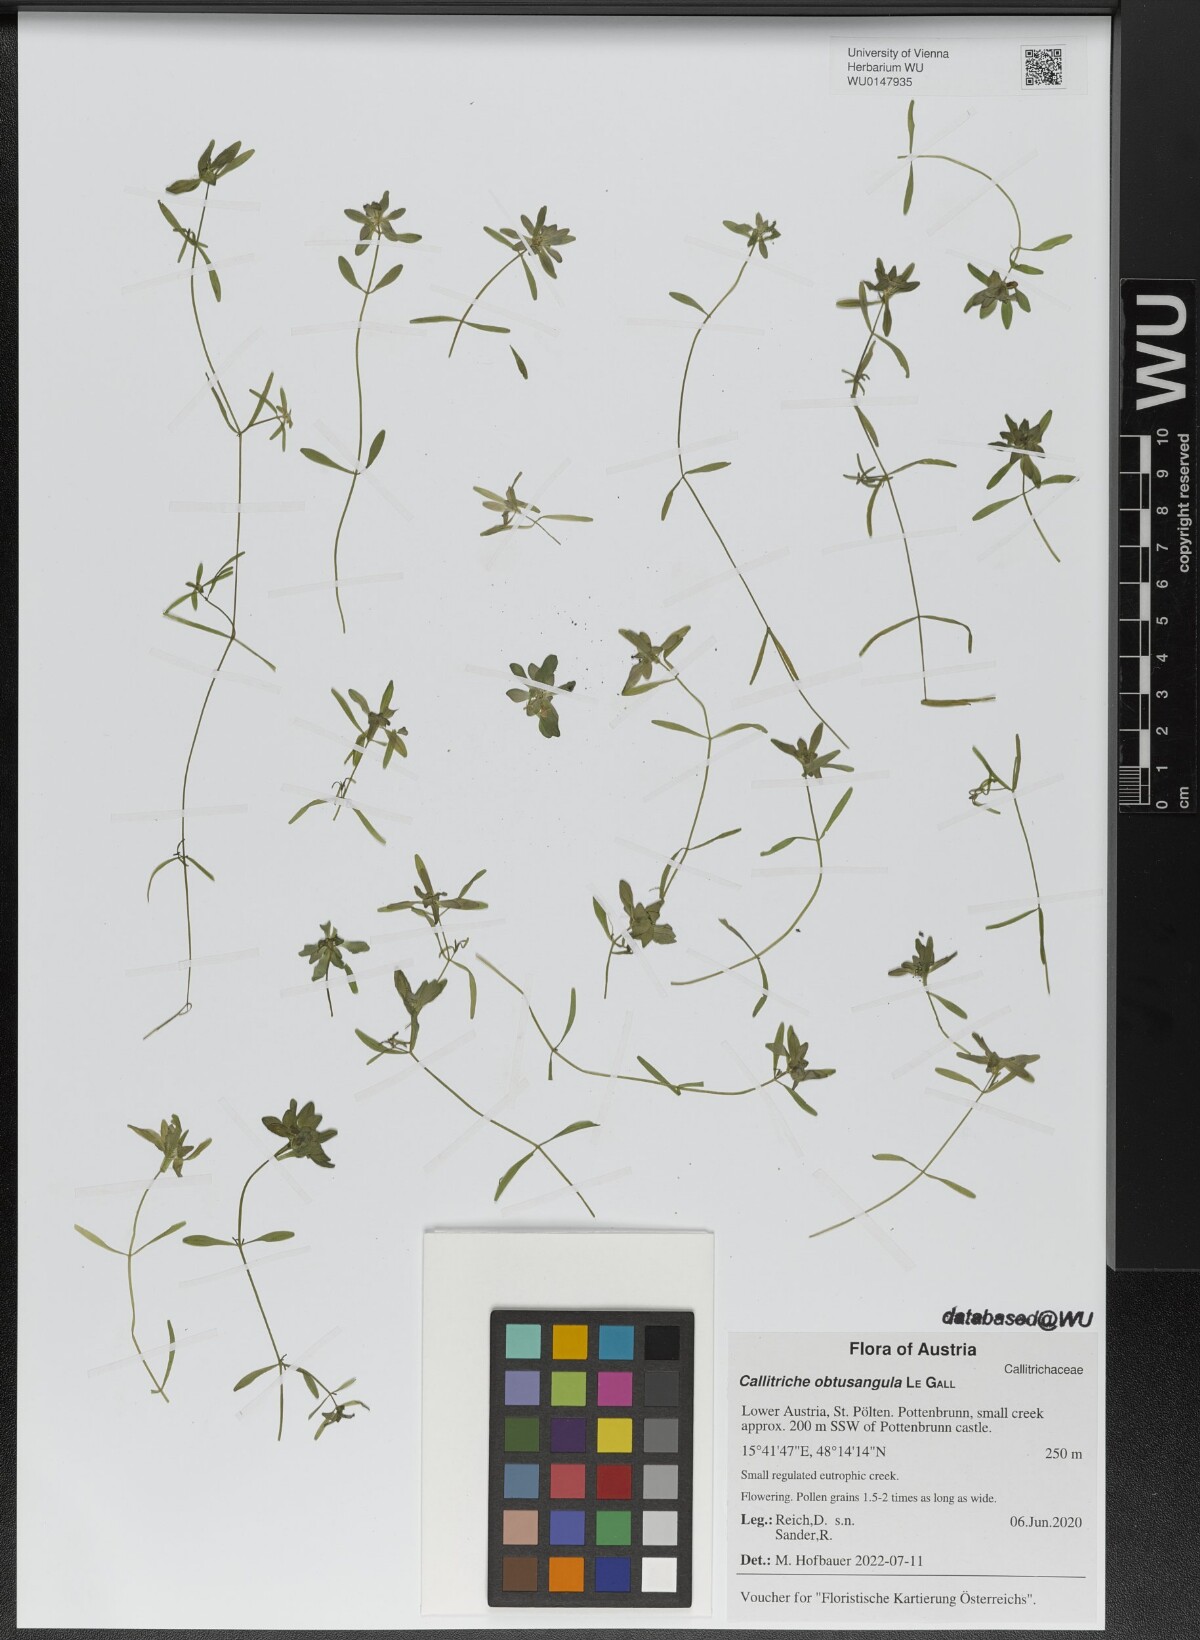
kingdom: Plantae
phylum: Tracheophyta
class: Magnoliopsida
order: Lamiales
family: Plantaginaceae
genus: Callitriche
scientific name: Callitriche obtusangula
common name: Blunt-fruited water-starwort
